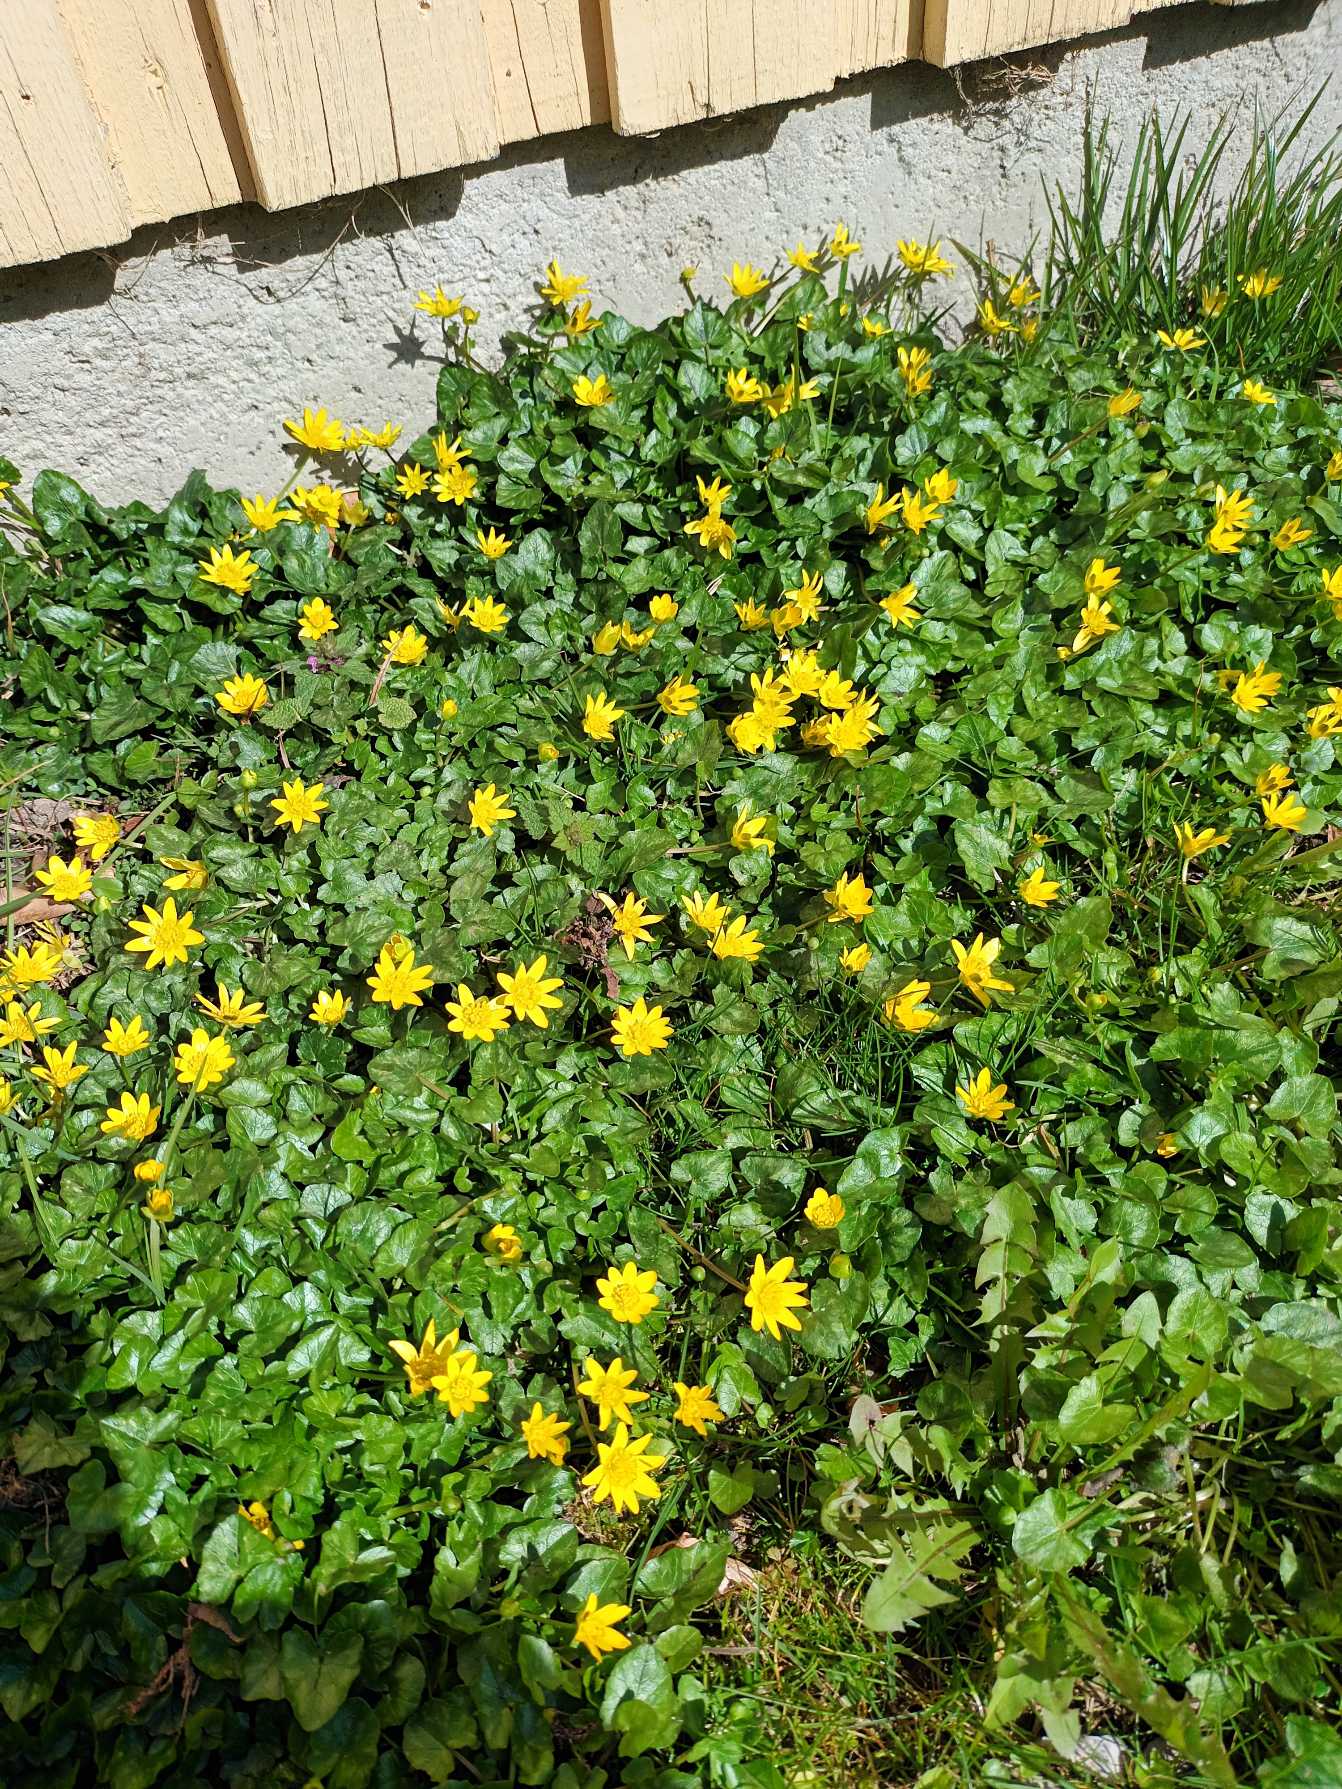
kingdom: Plantae
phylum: Tracheophyta
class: Magnoliopsida
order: Ranunculales
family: Ranunculaceae
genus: Ficaria
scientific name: Ficaria verna
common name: Vorterod
